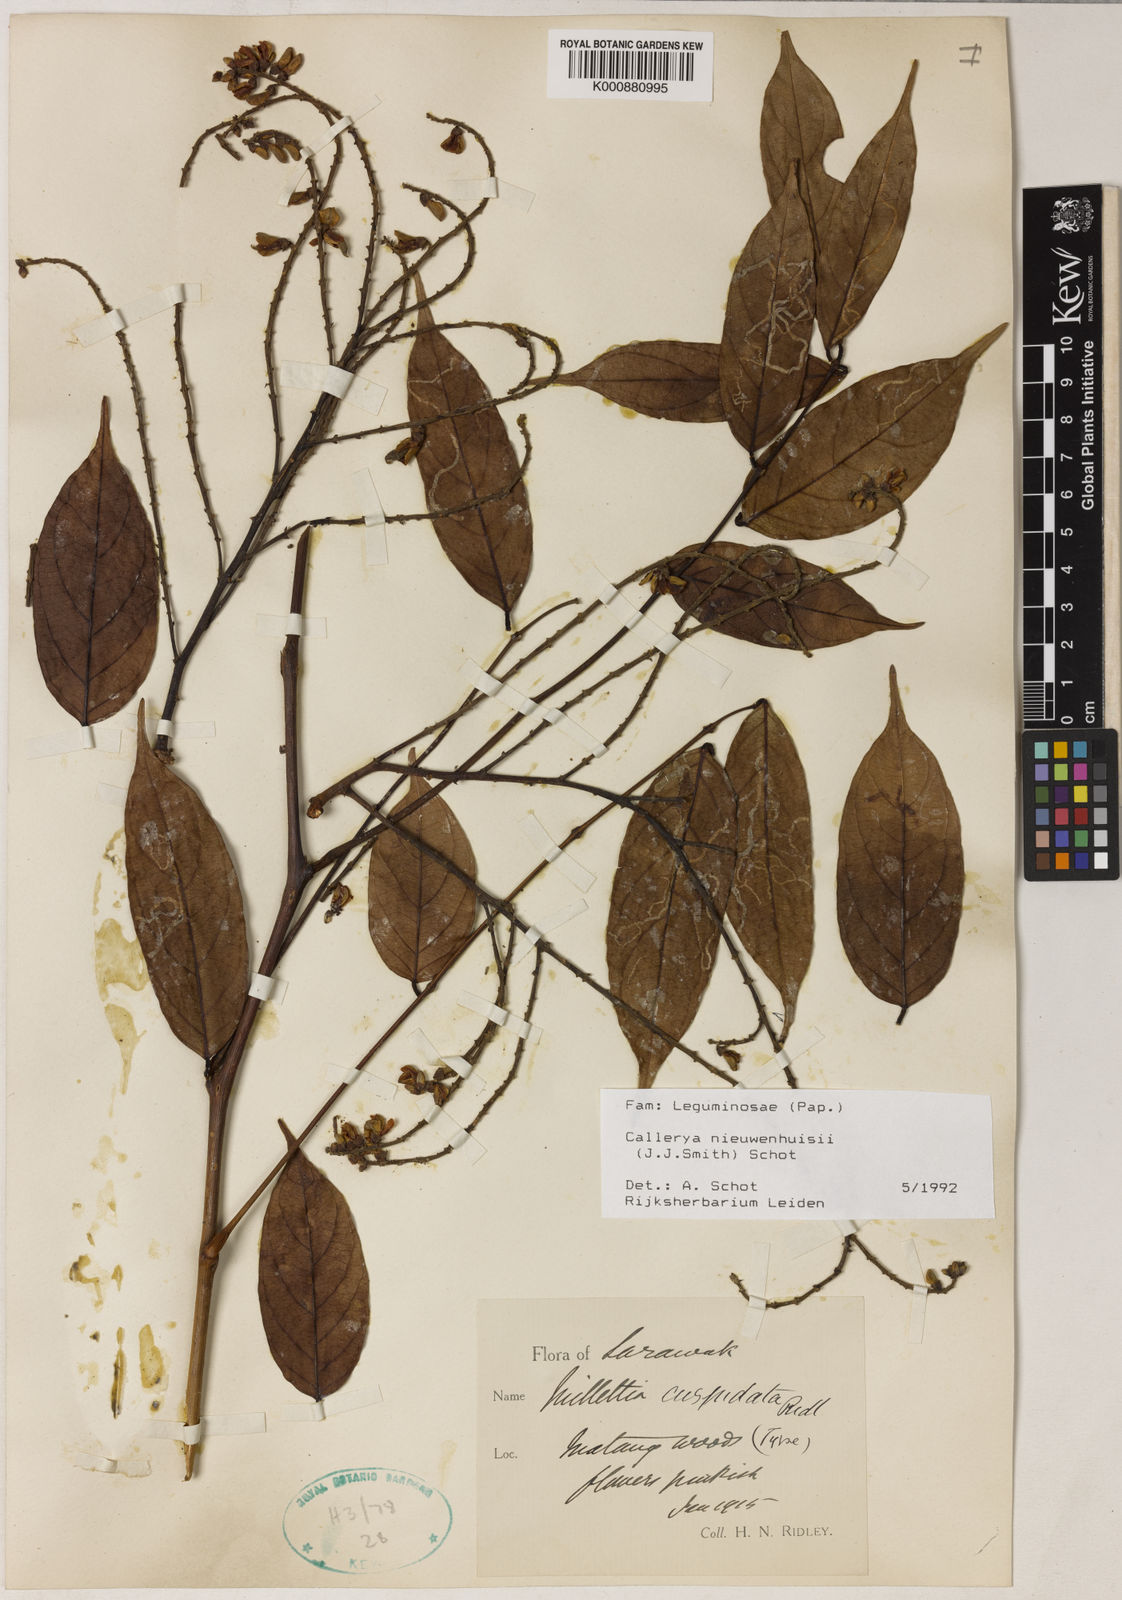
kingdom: Plantae
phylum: Tracheophyta
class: Magnoliopsida
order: Fabales
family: Fabaceae
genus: Whitfordiodendron
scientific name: Whitfordiodendron nieuwenhuisii
